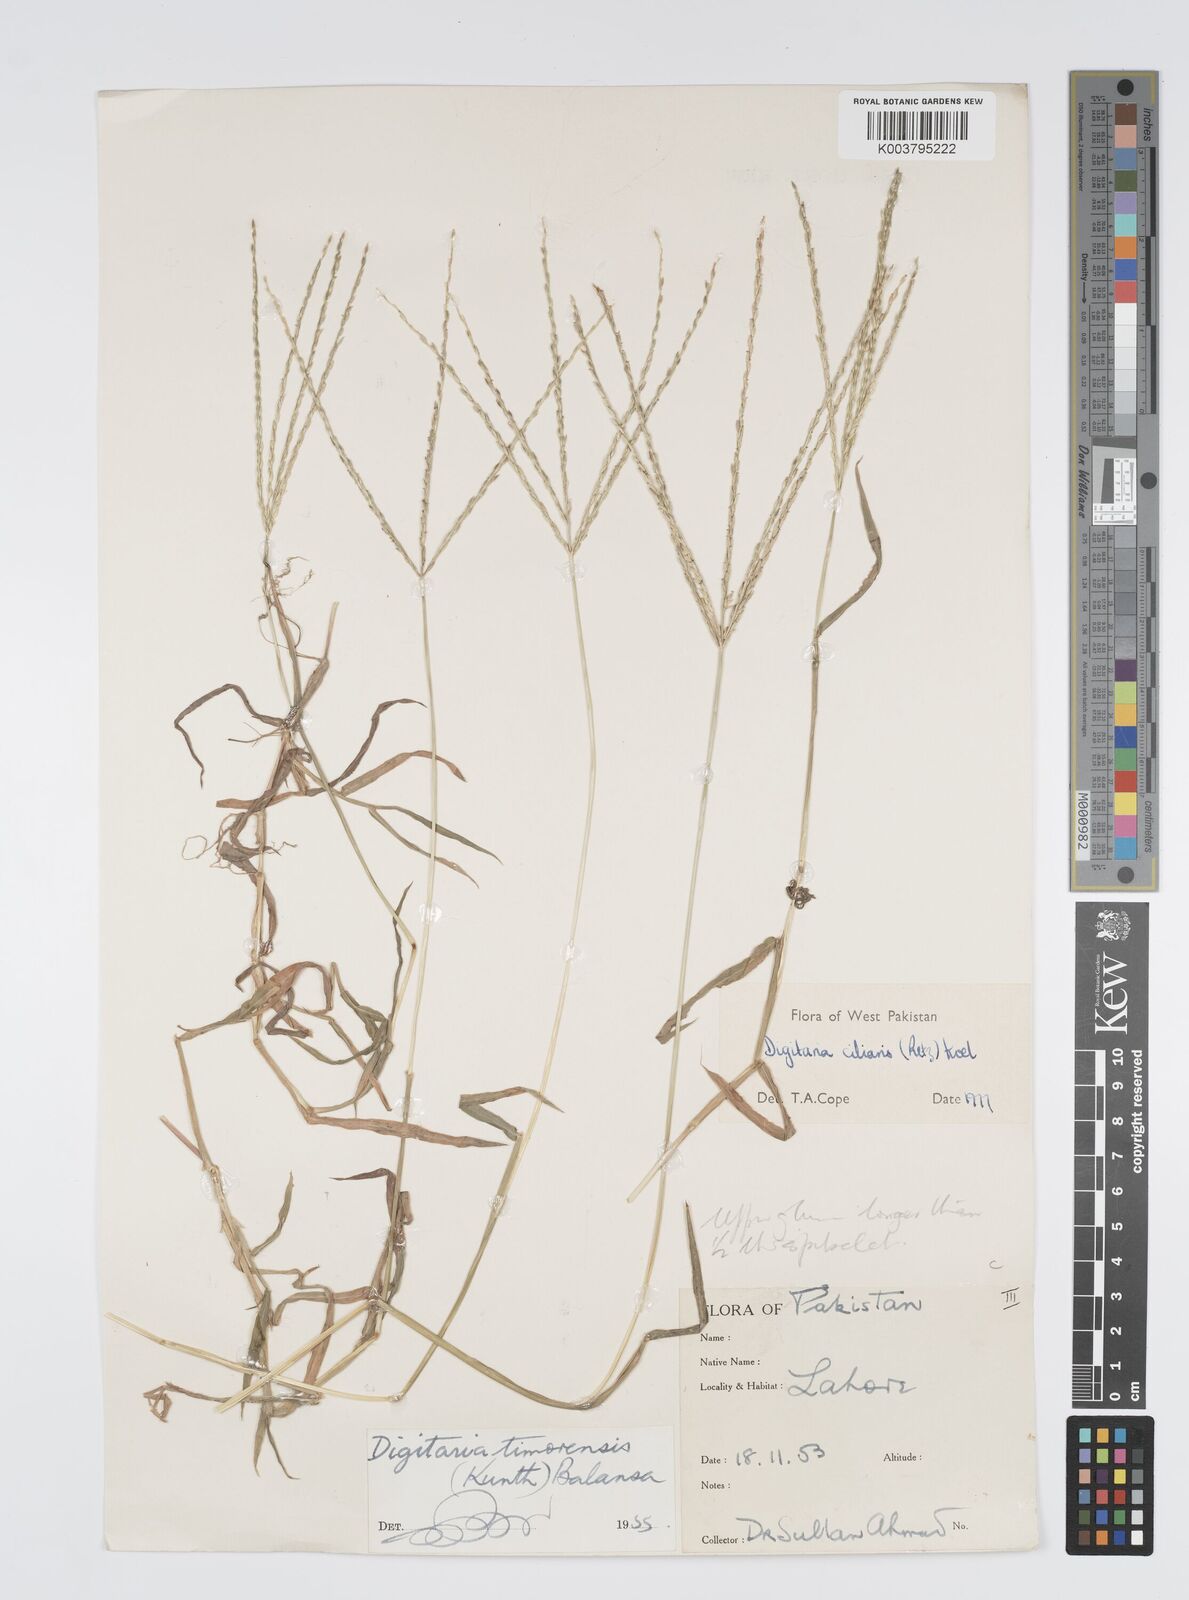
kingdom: Plantae
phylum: Tracheophyta
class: Liliopsida
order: Poales
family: Poaceae
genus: Digitaria
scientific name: Digitaria ciliaris
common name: Tropical finger-grass
